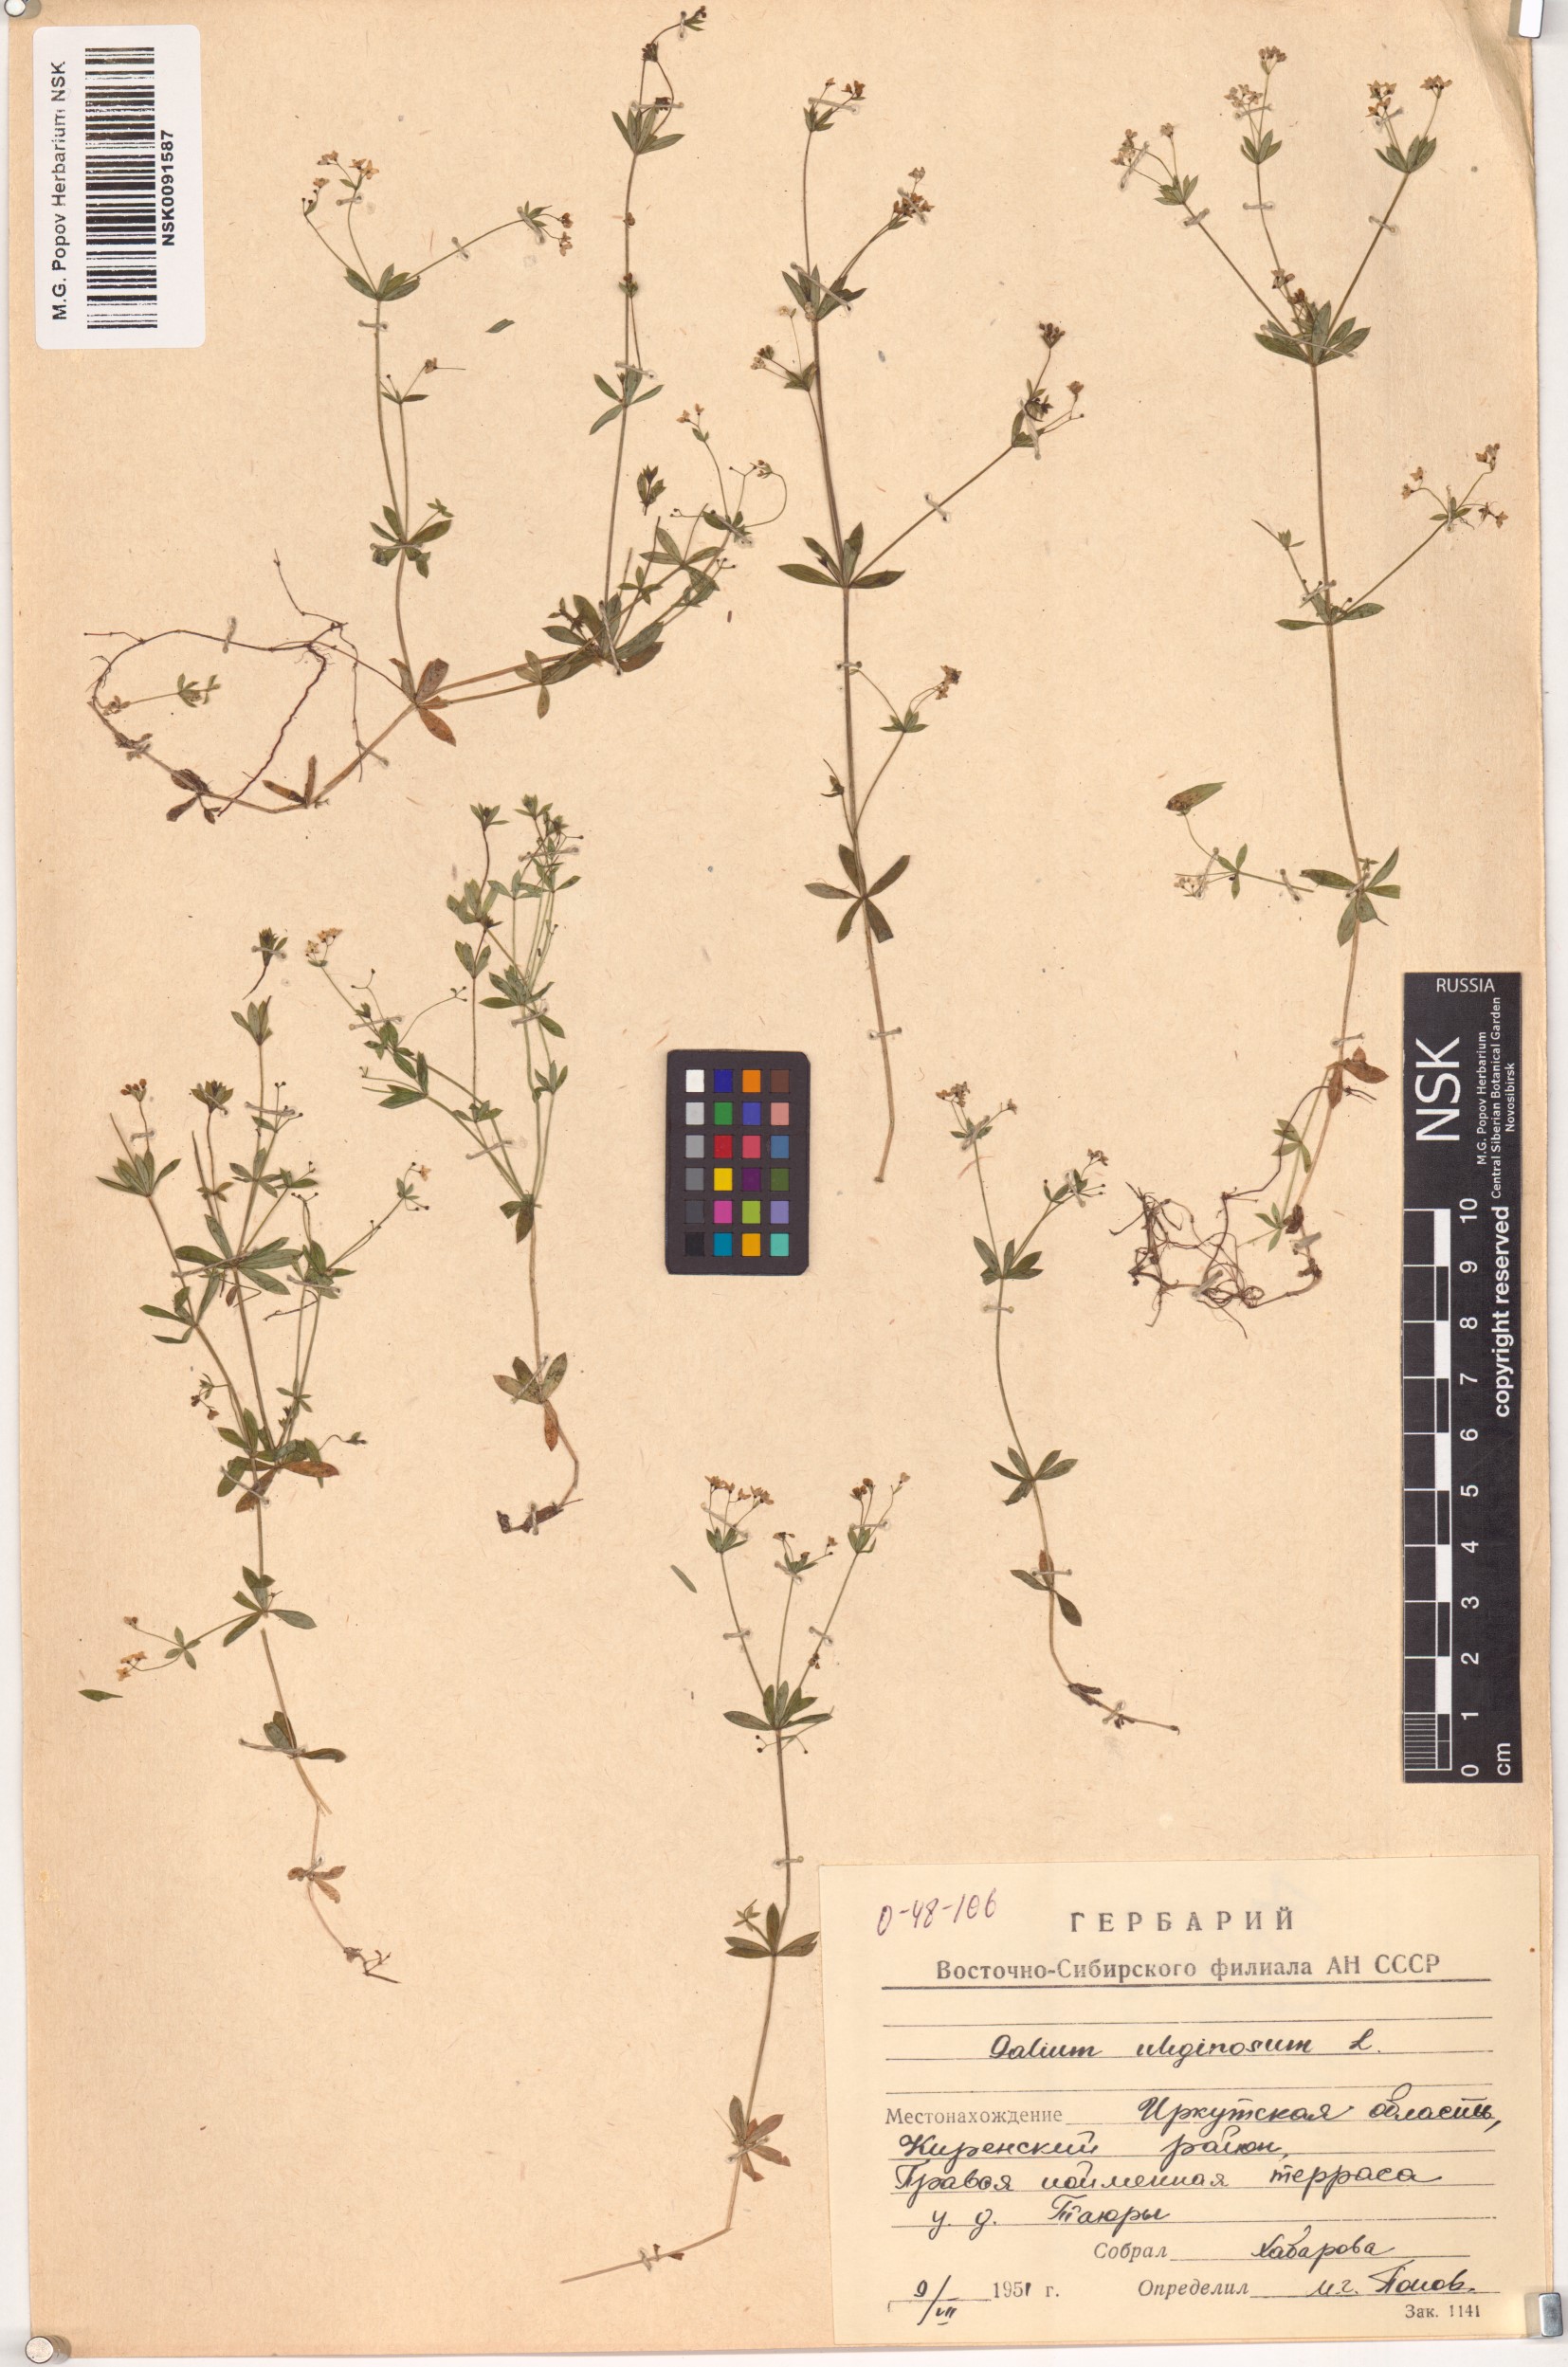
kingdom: Plantae
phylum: Tracheophyta
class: Magnoliopsida
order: Gentianales
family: Rubiaceae
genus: Galium
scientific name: Galium uliginosum
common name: Fen bedstraw
